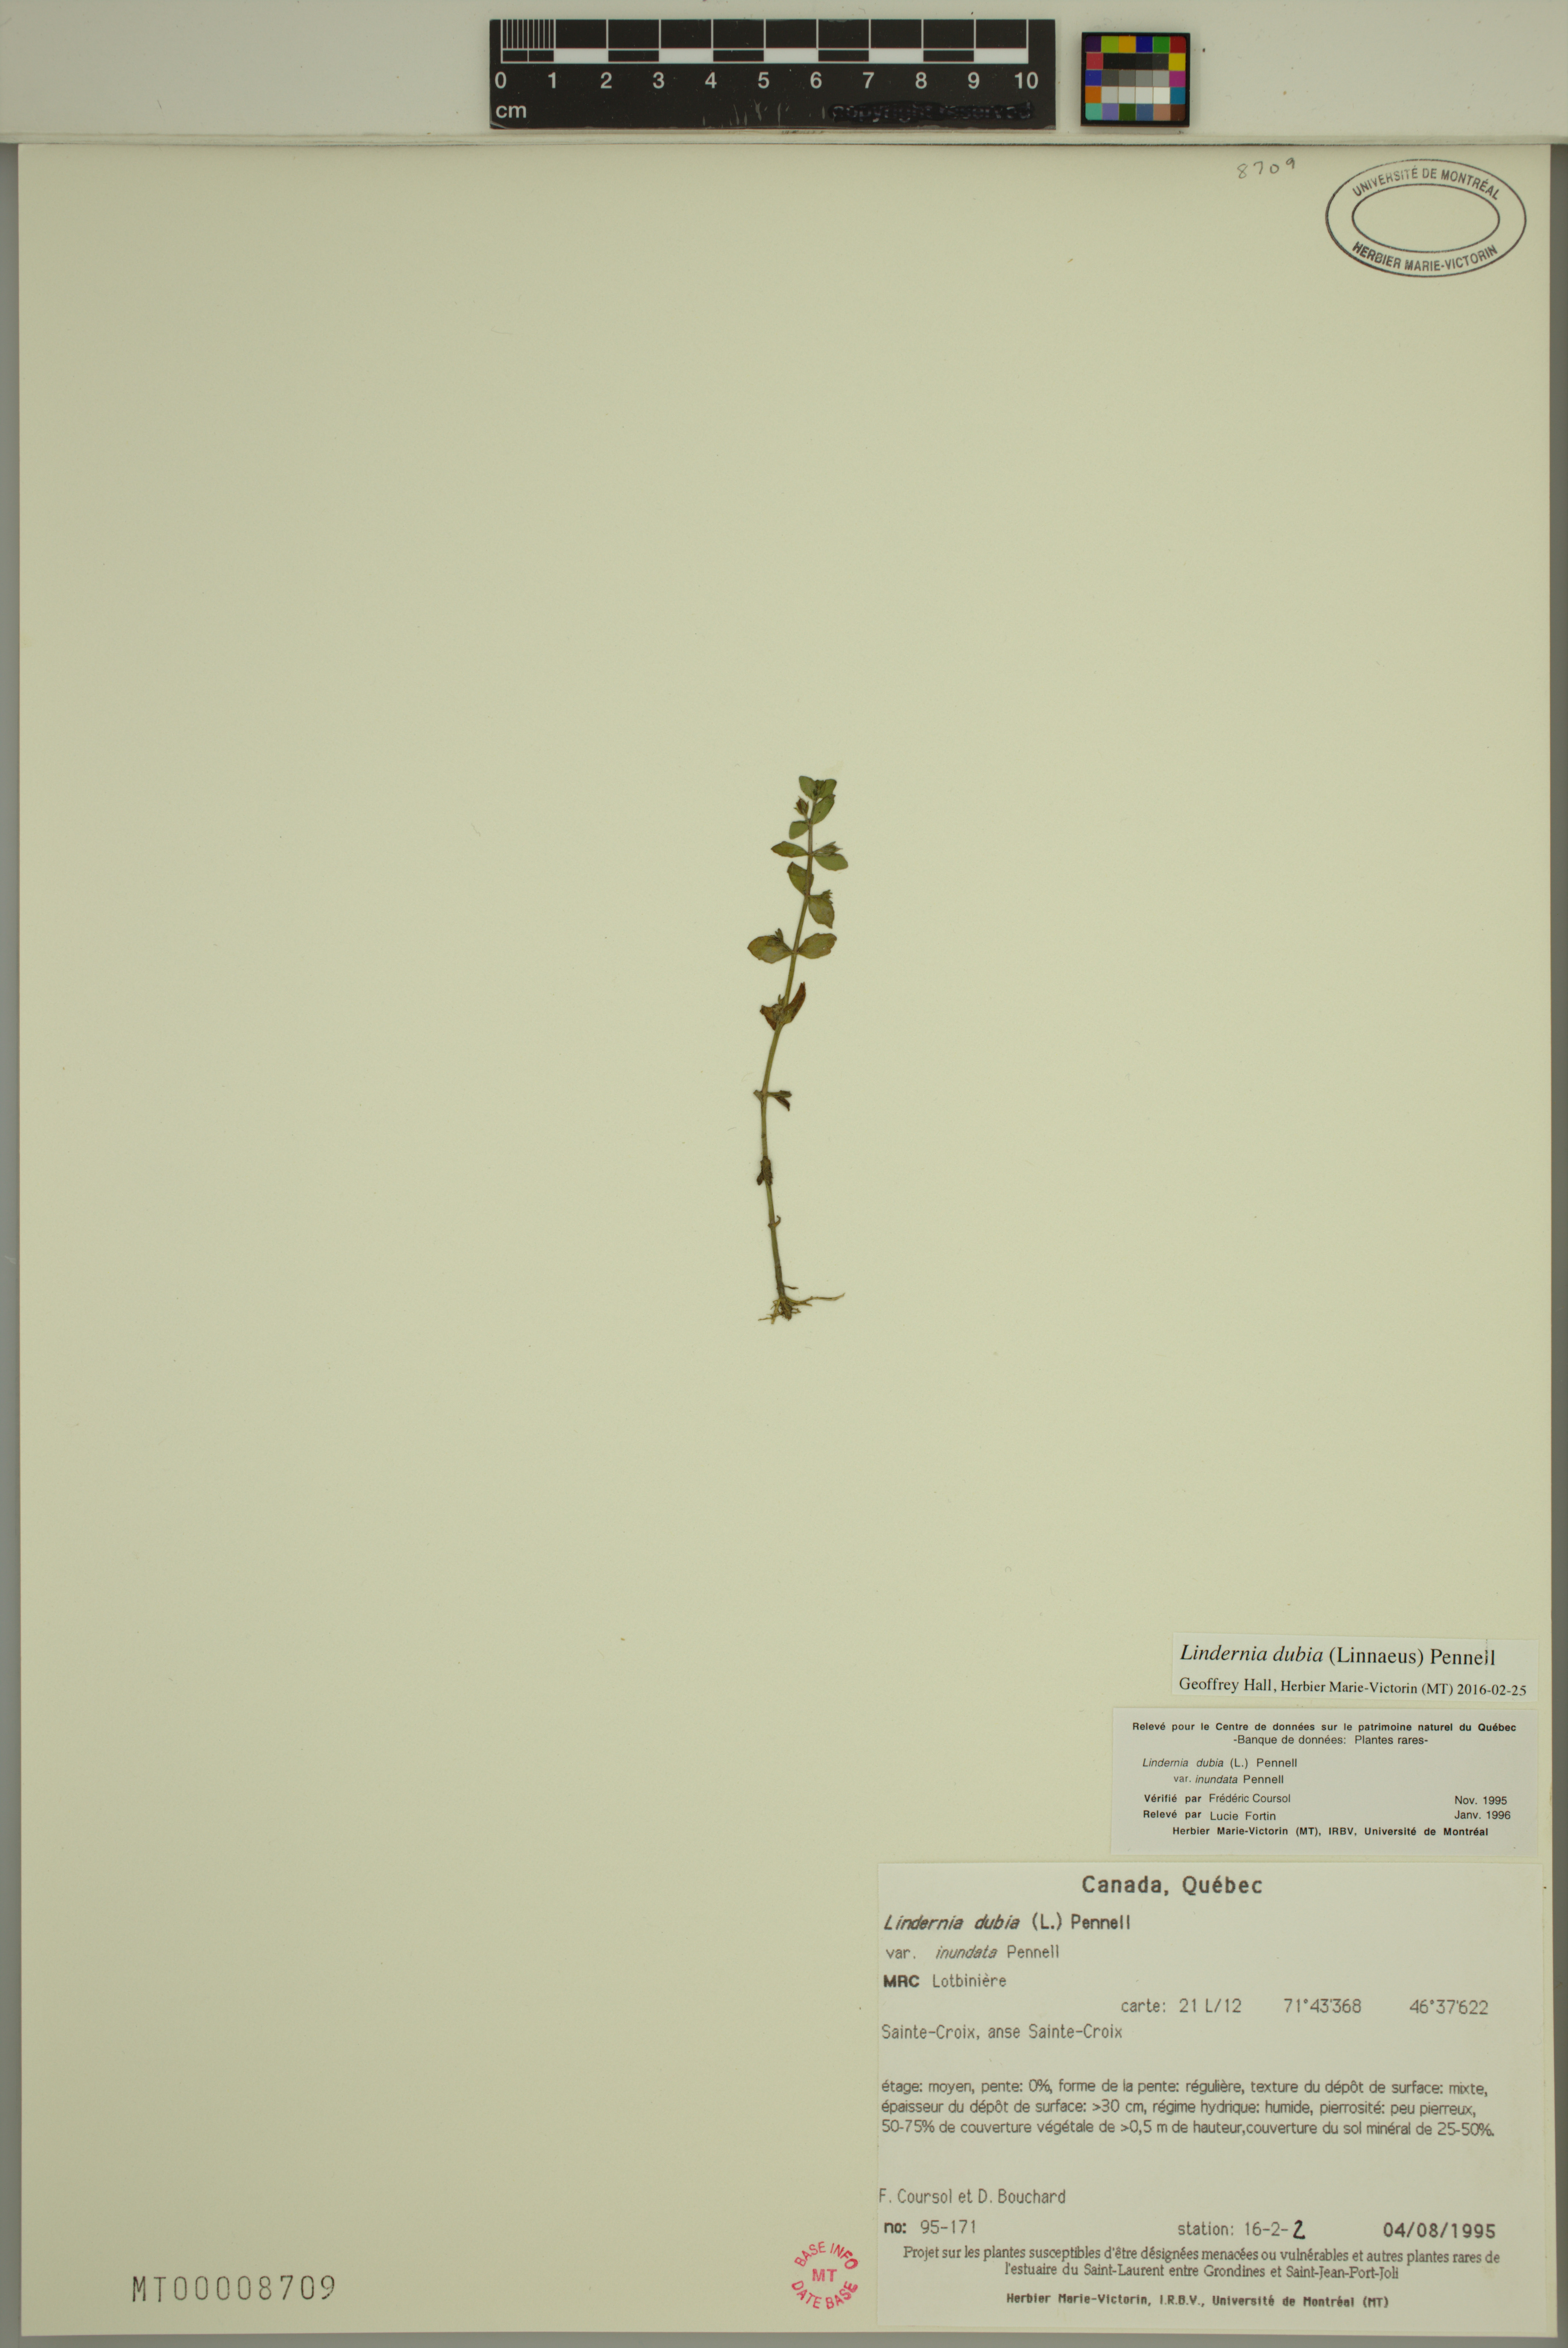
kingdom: Plantae
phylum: Tracheophyta
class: Magnoliopsida
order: Lamiales
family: Linderniaceae
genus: Lindernia
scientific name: Lindernia dubia
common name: Annual false pimpernel
